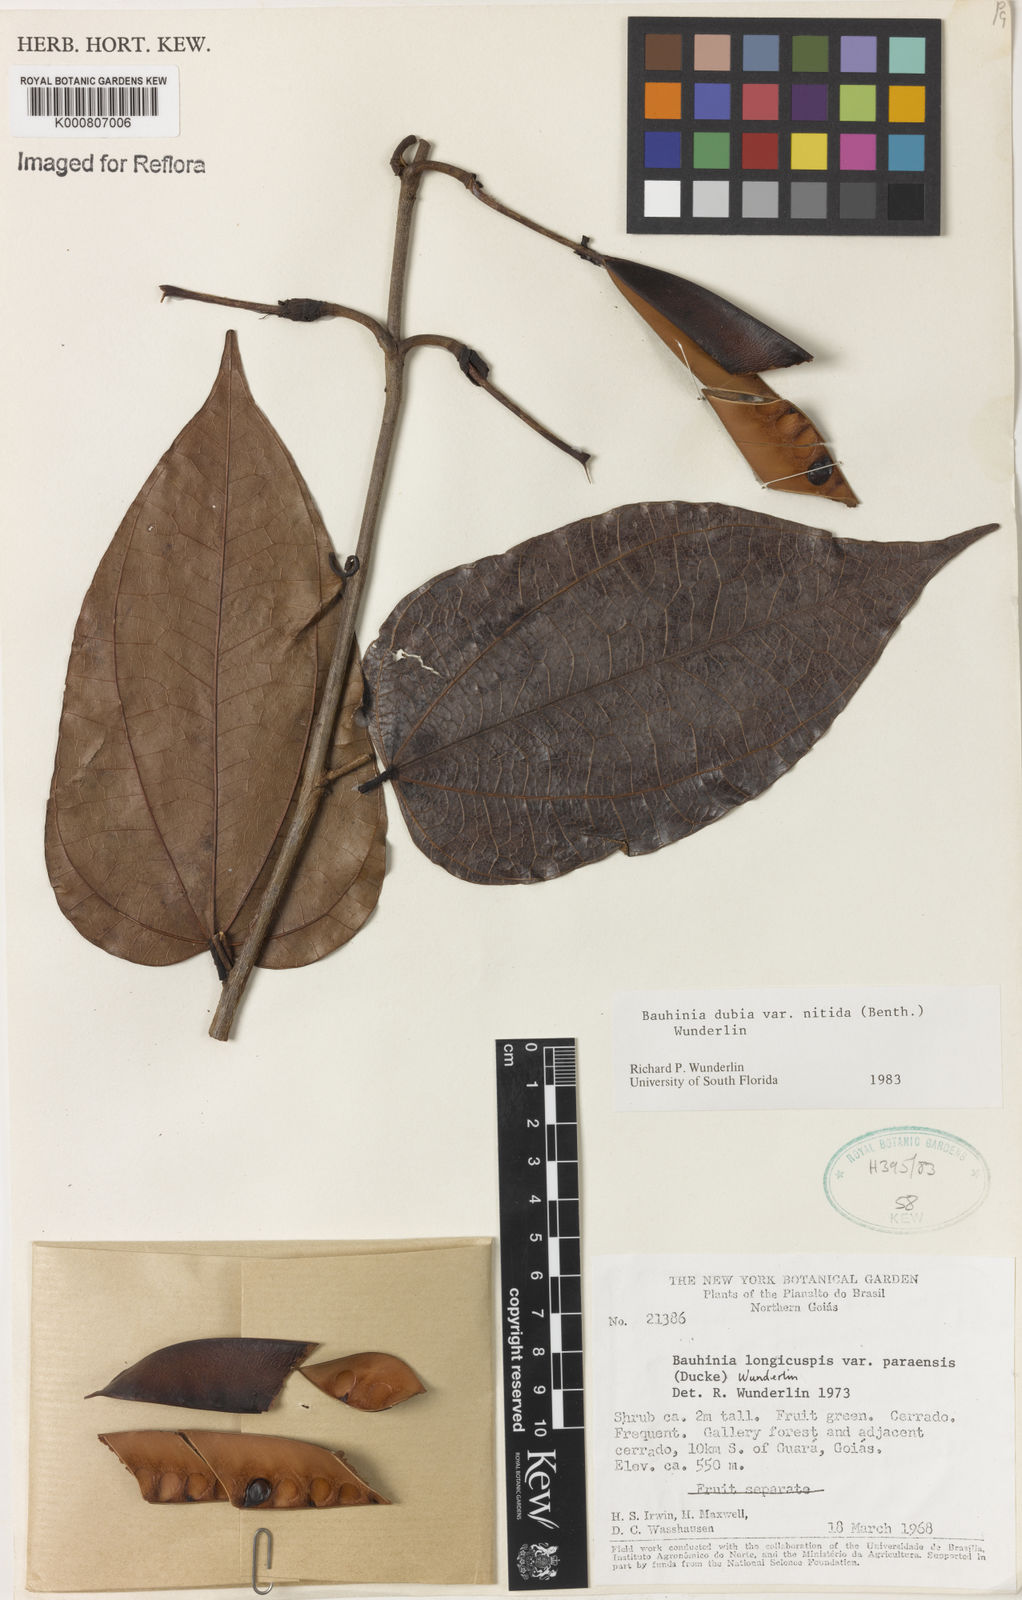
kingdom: Plantae
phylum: Tracheophyta
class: Magnoliopsida
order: Fabales
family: Fabaceae
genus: Bauhinia
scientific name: Bauhinia dubia
